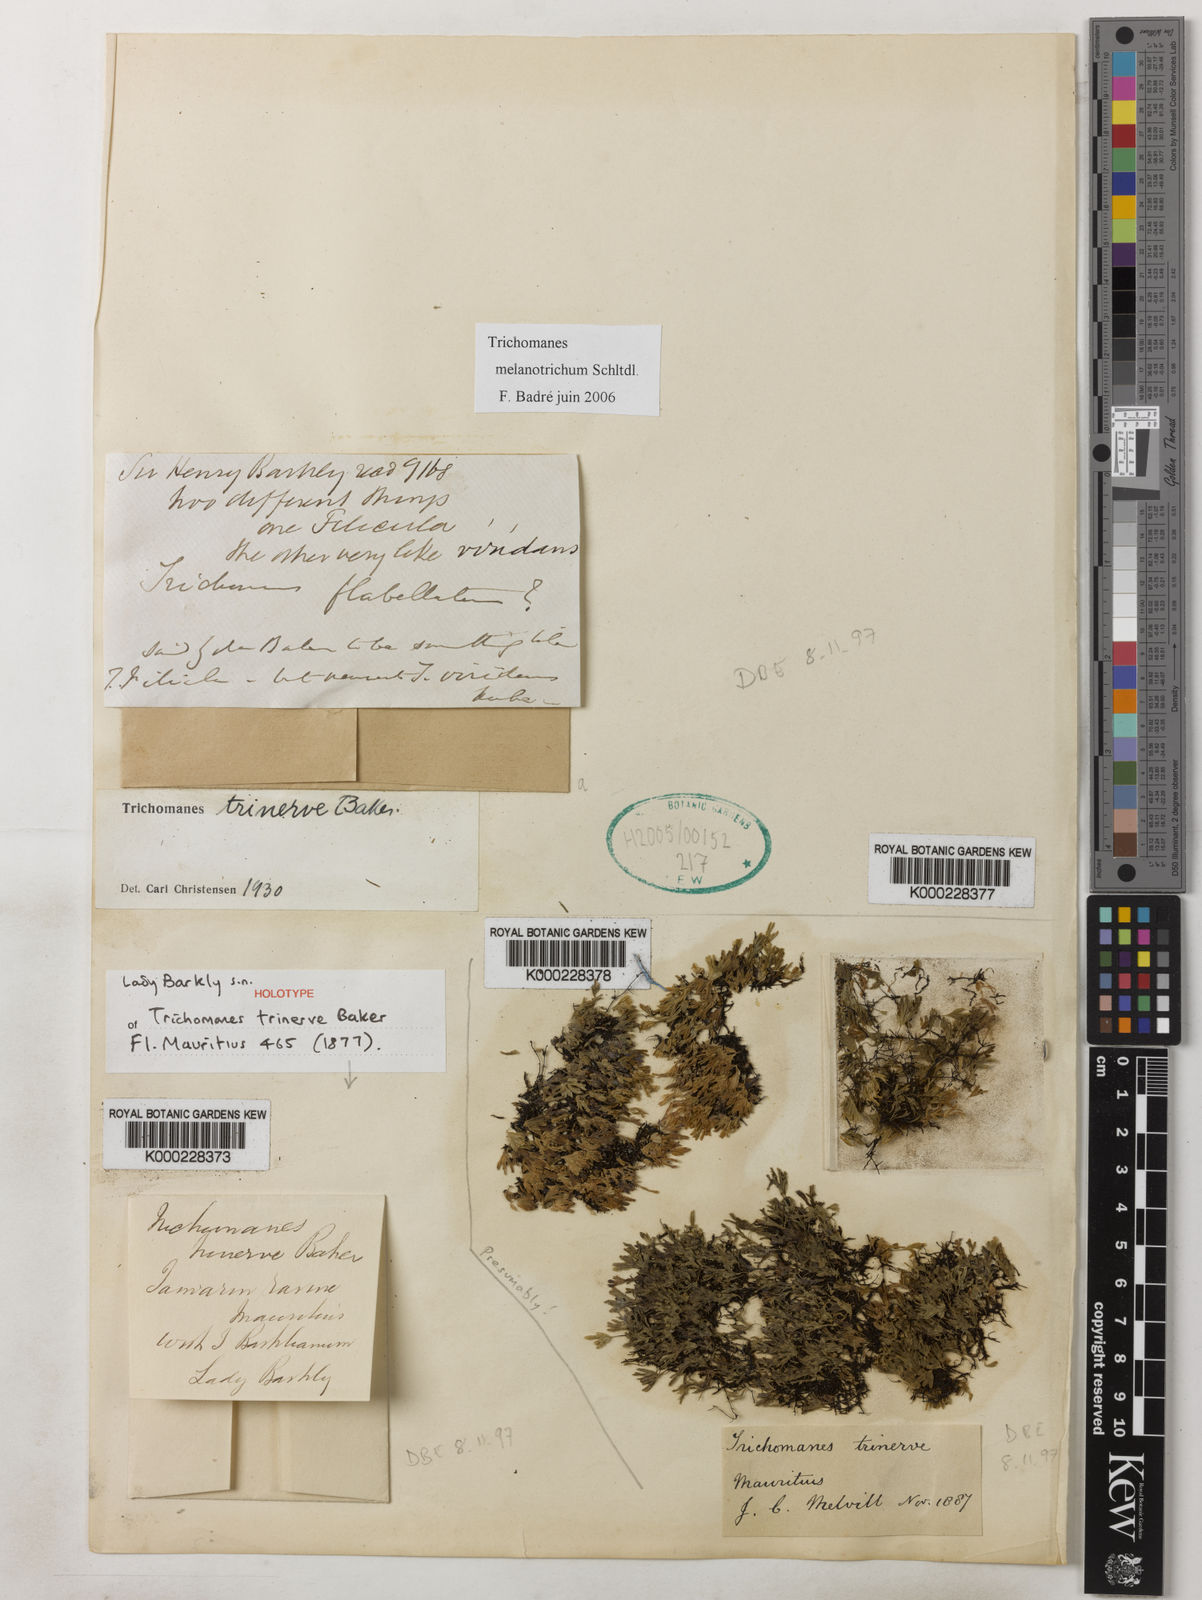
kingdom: Plantae
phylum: Tracheophyta
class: Polypodiopsida
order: Hymenophyllales
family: Hymenophyllaceae
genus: Crepidomanes
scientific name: Crepidomanes trinerve
